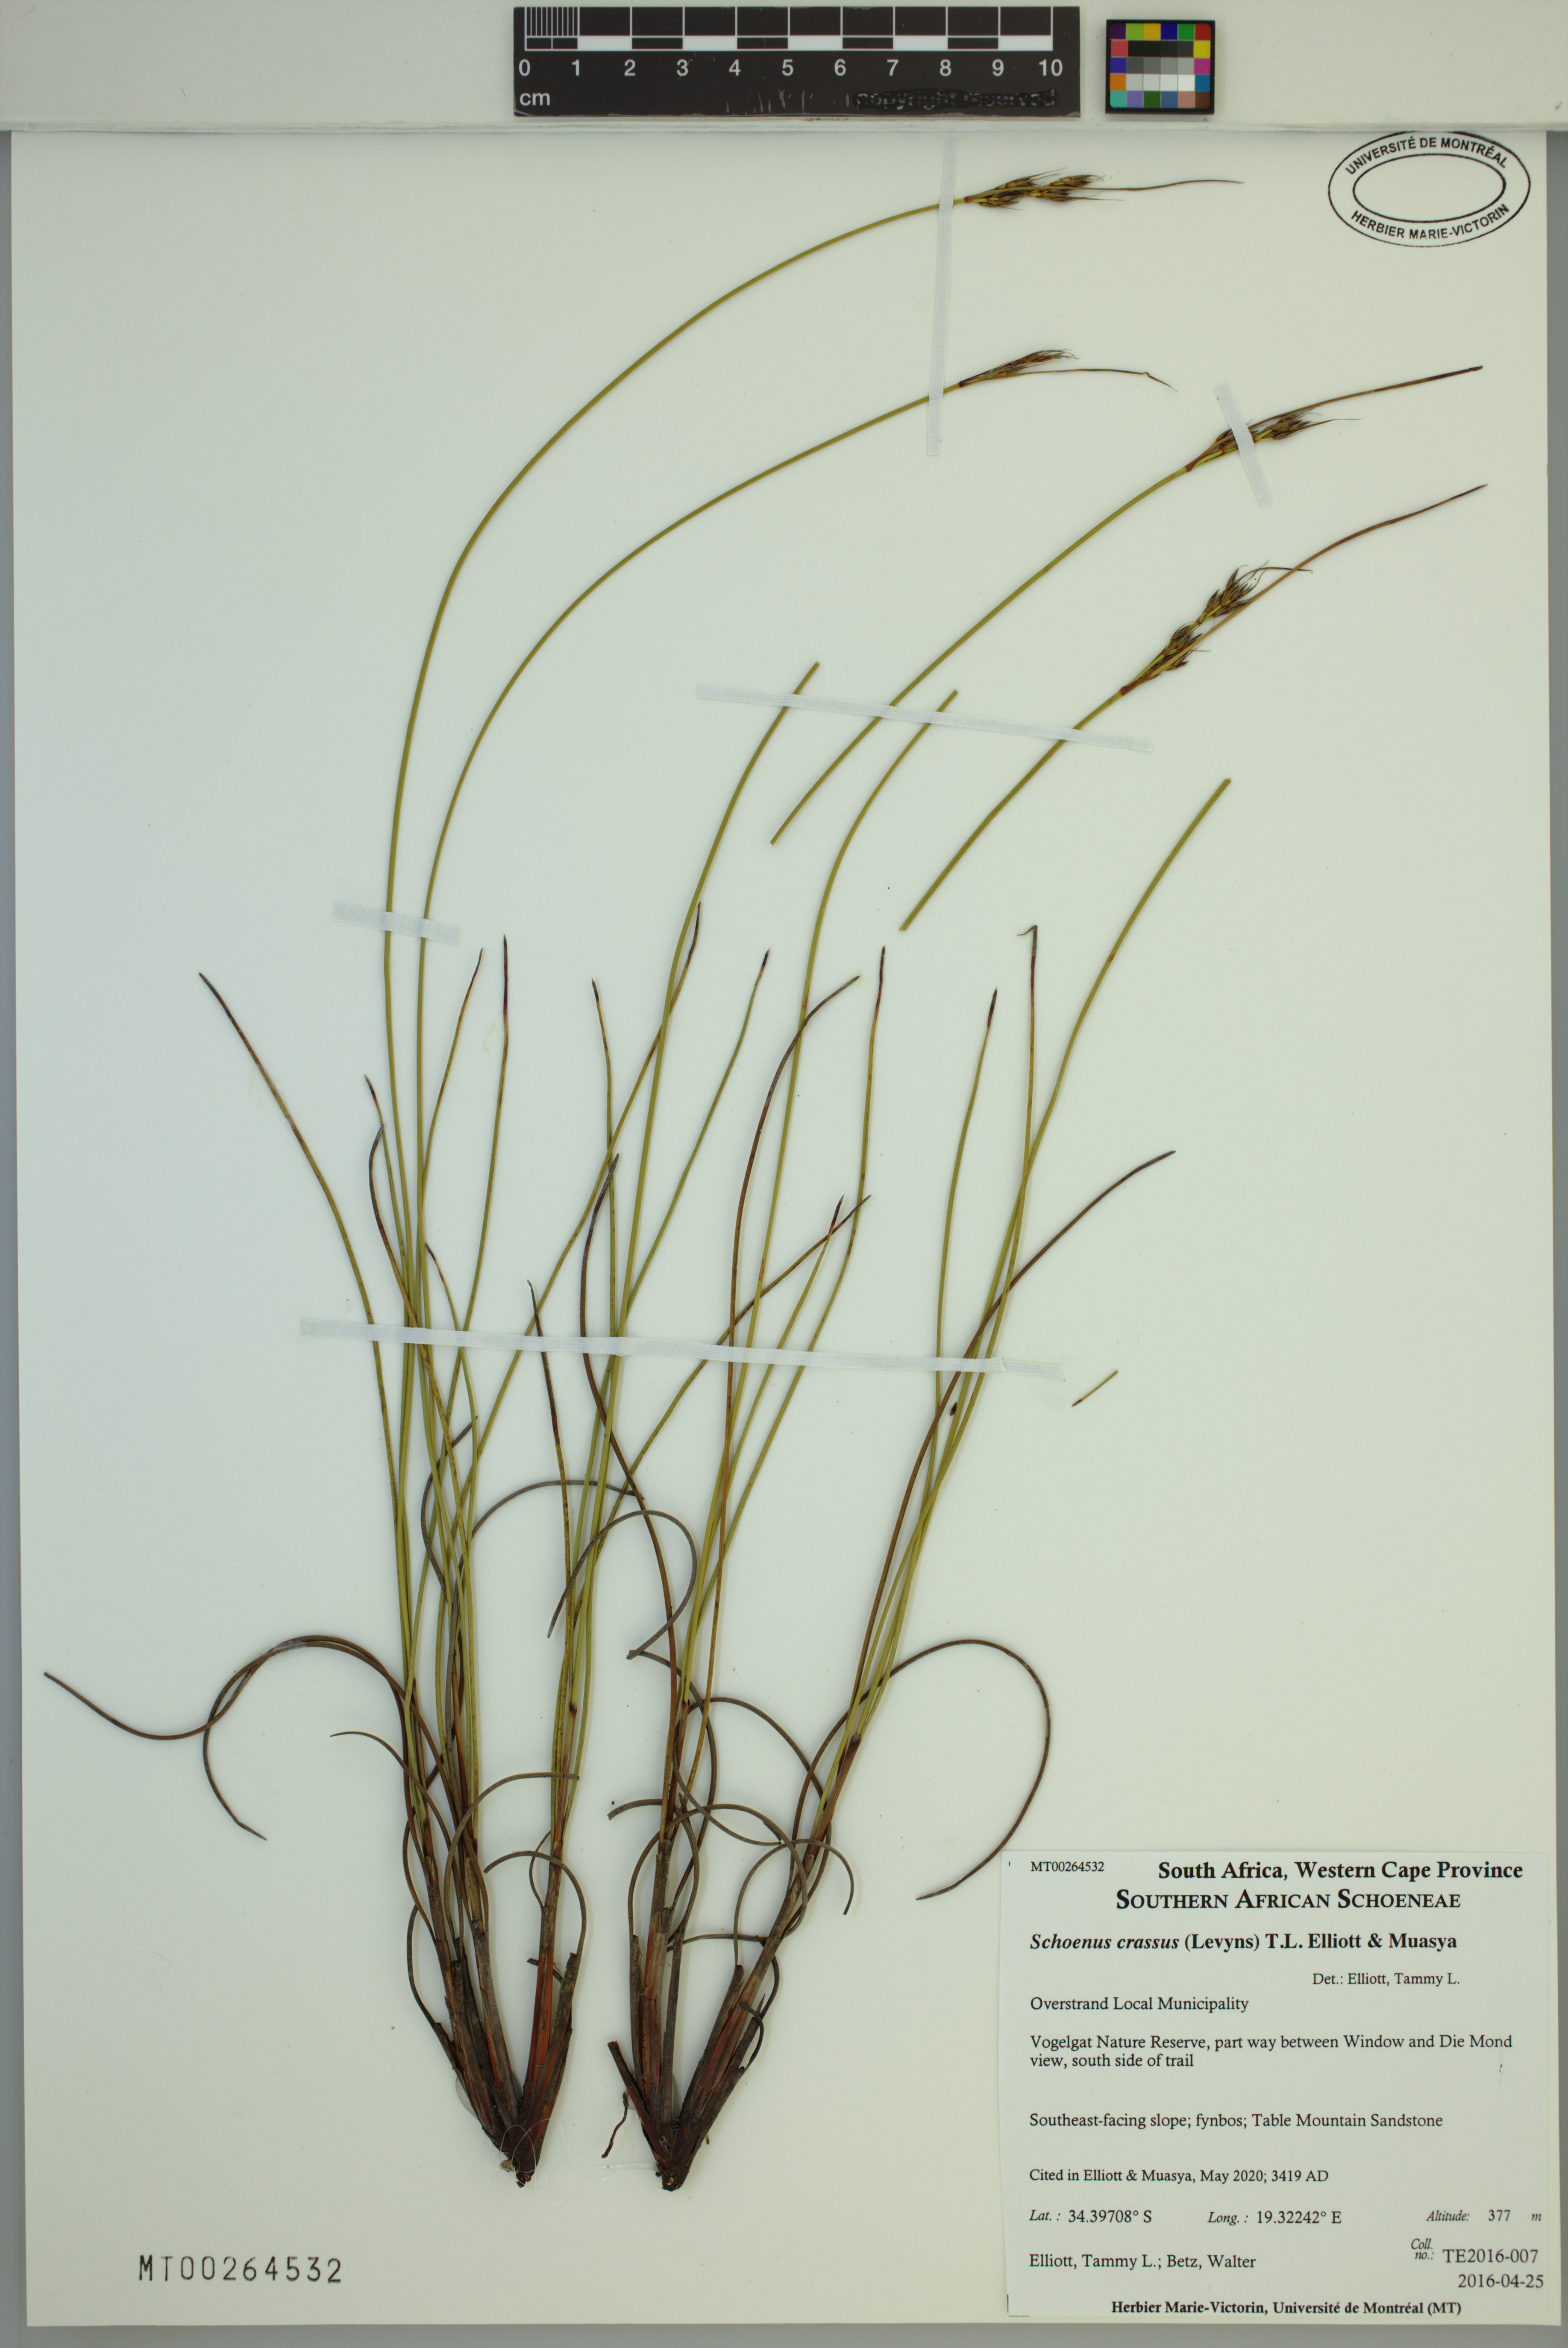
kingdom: Plantae
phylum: Tracheophyta
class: Liliopsida
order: Poales
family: Cyperaceae
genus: Schoenus
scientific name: Schoenus crassus
